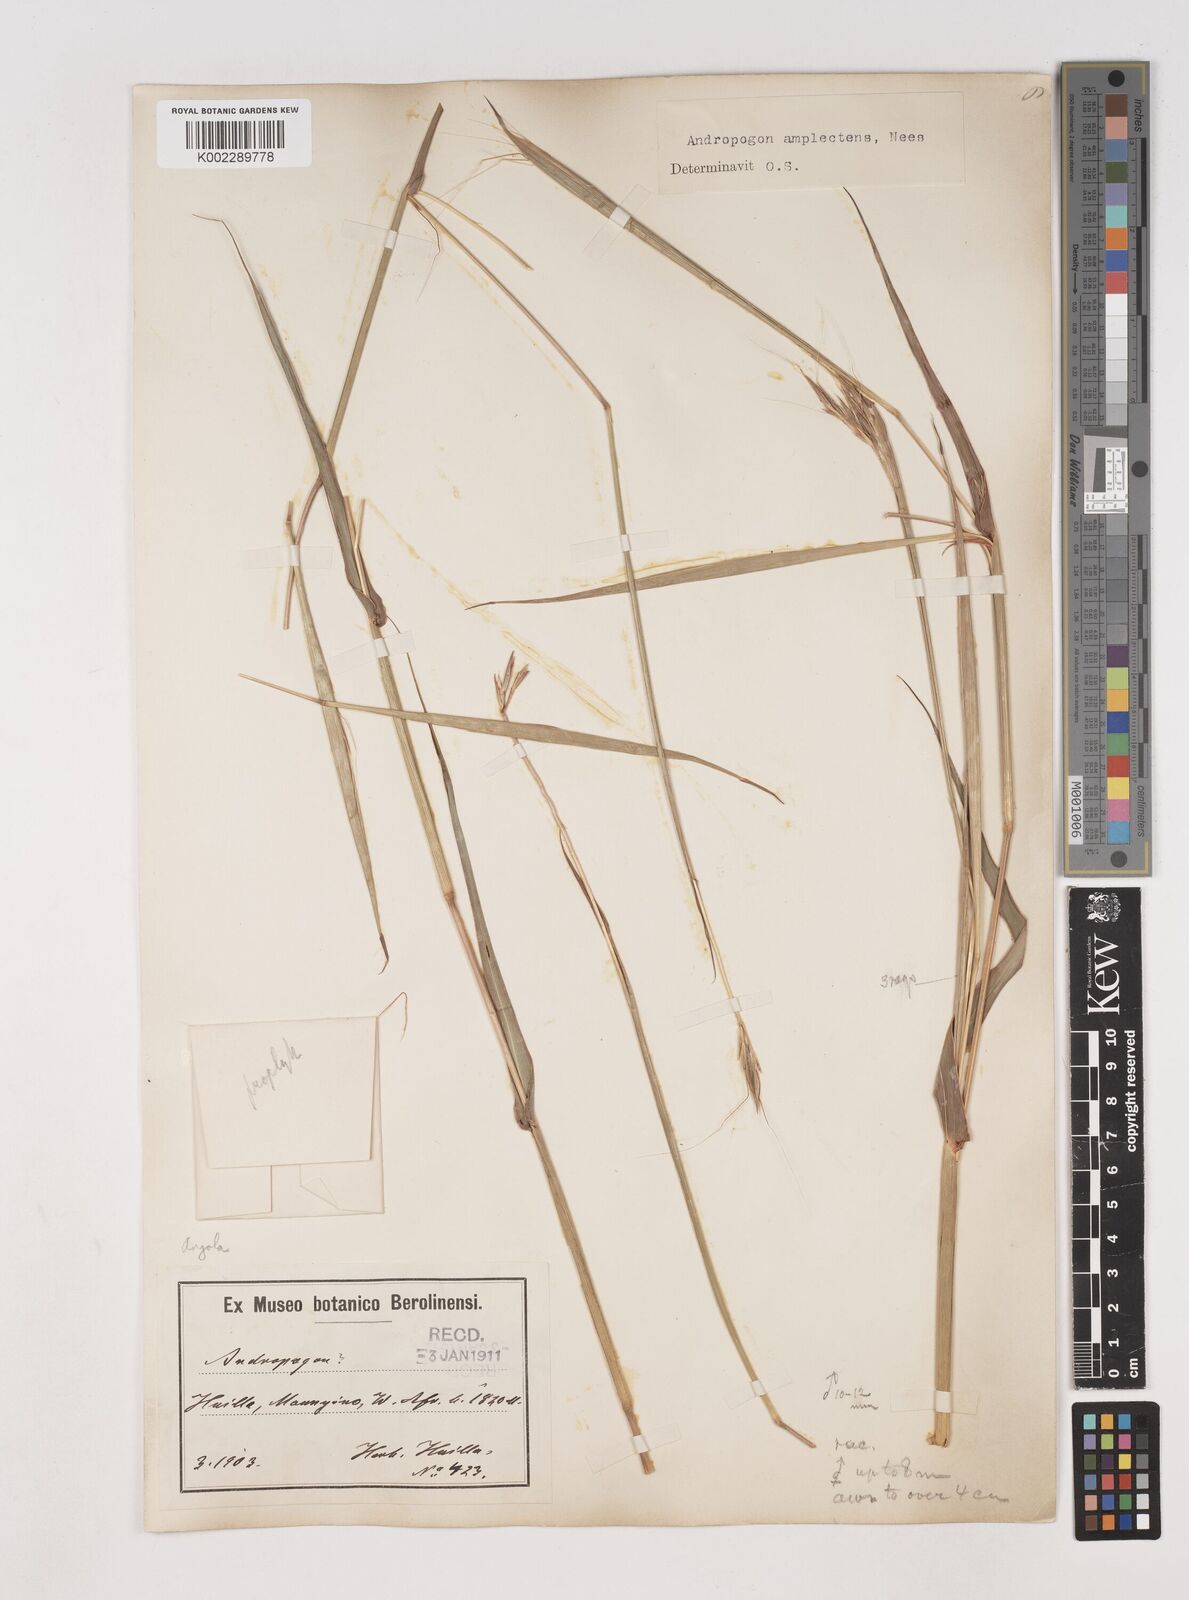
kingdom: Plantae
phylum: Tracheophyta
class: Liliopsida
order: Poales
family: Poaceae
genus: Diheteropogon
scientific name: Diheteropogon amplectens
